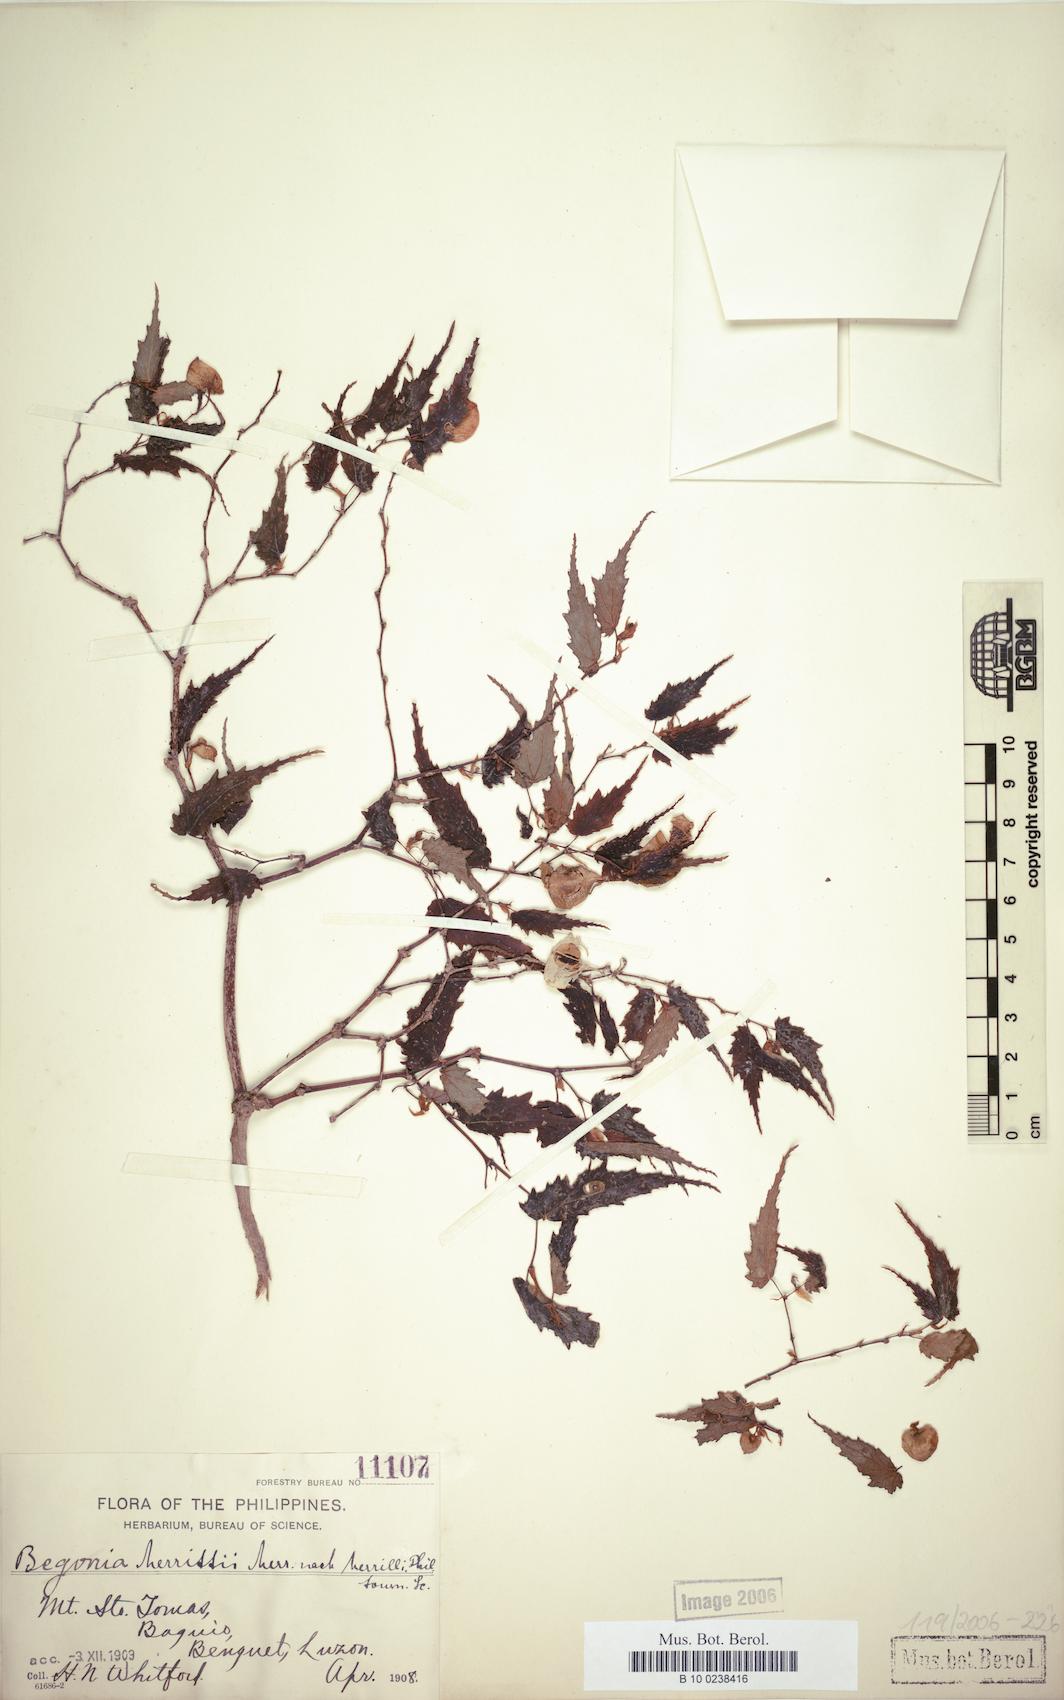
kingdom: Plantae
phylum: Tracheophyta
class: Magnoliopsida
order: Cucurbitales
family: Begoniaceae
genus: Begonia
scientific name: Begonia merrittii
